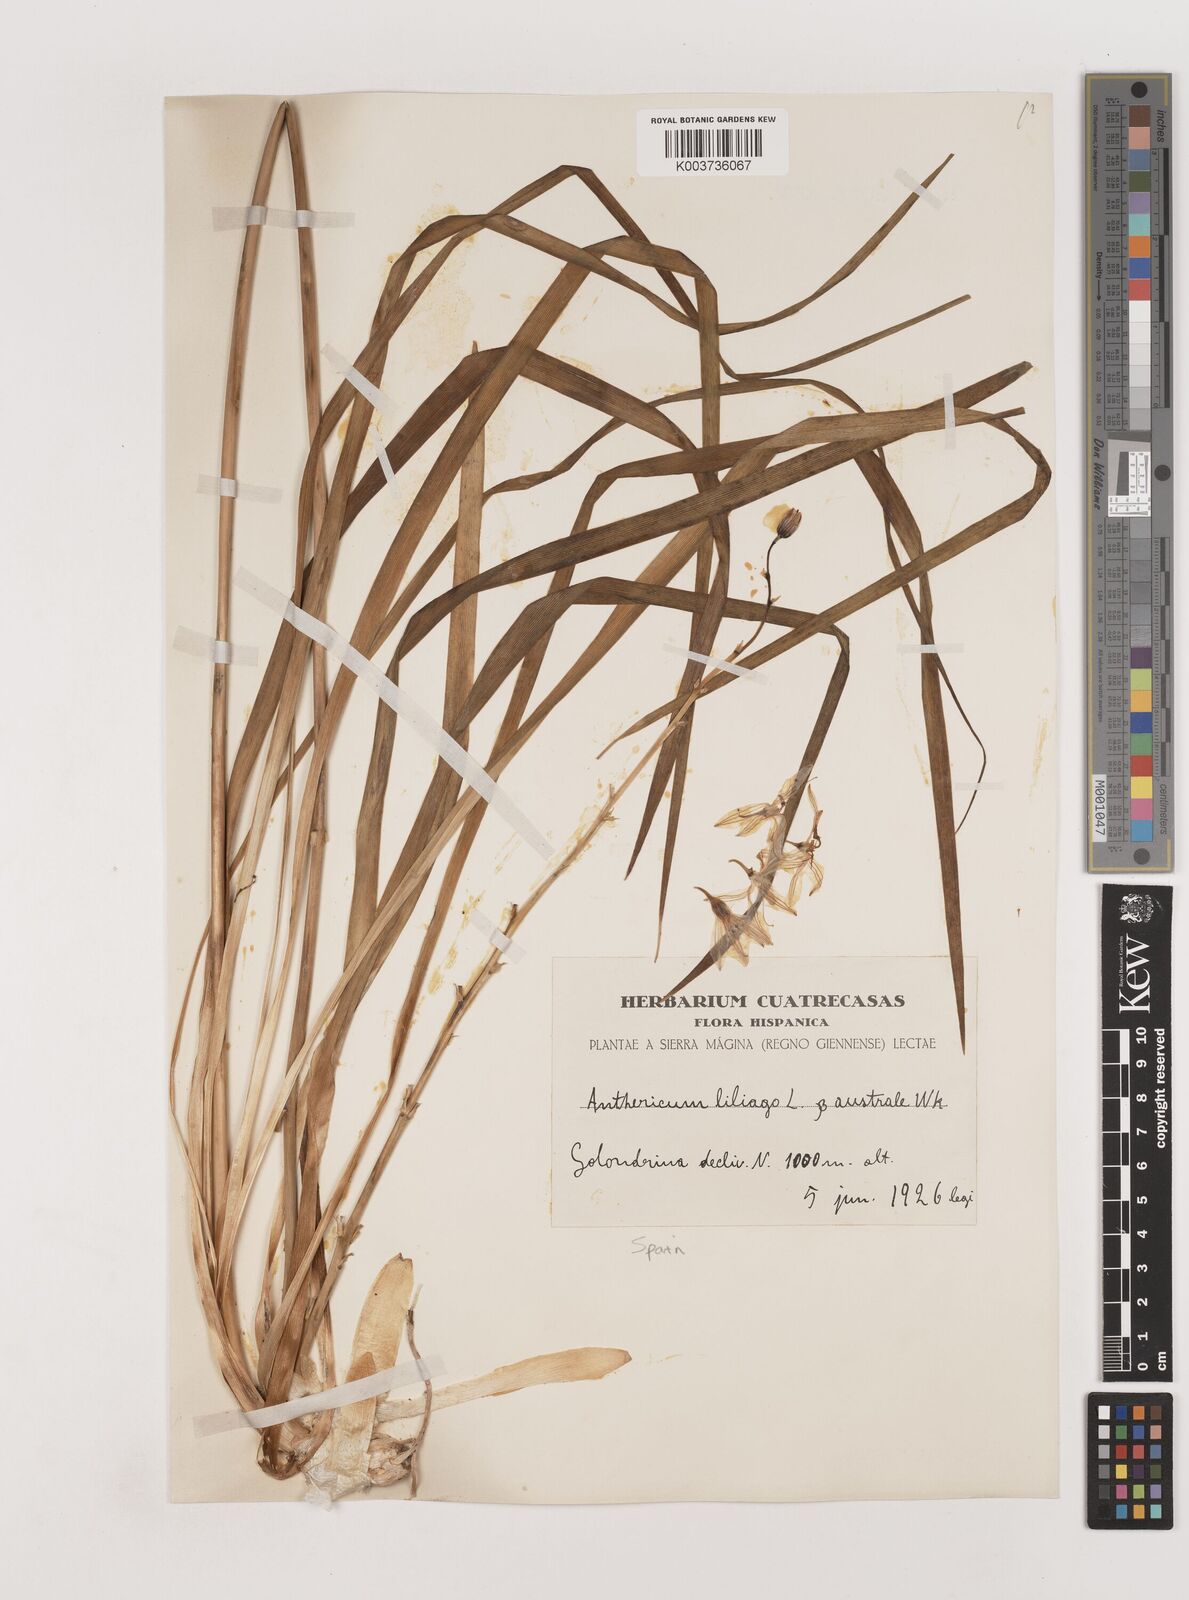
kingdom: Plantae
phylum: Tracheophyta
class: Liliopsida
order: Asparagales
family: Asparagaceae
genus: Anthericum
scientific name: Anthericum liliago
